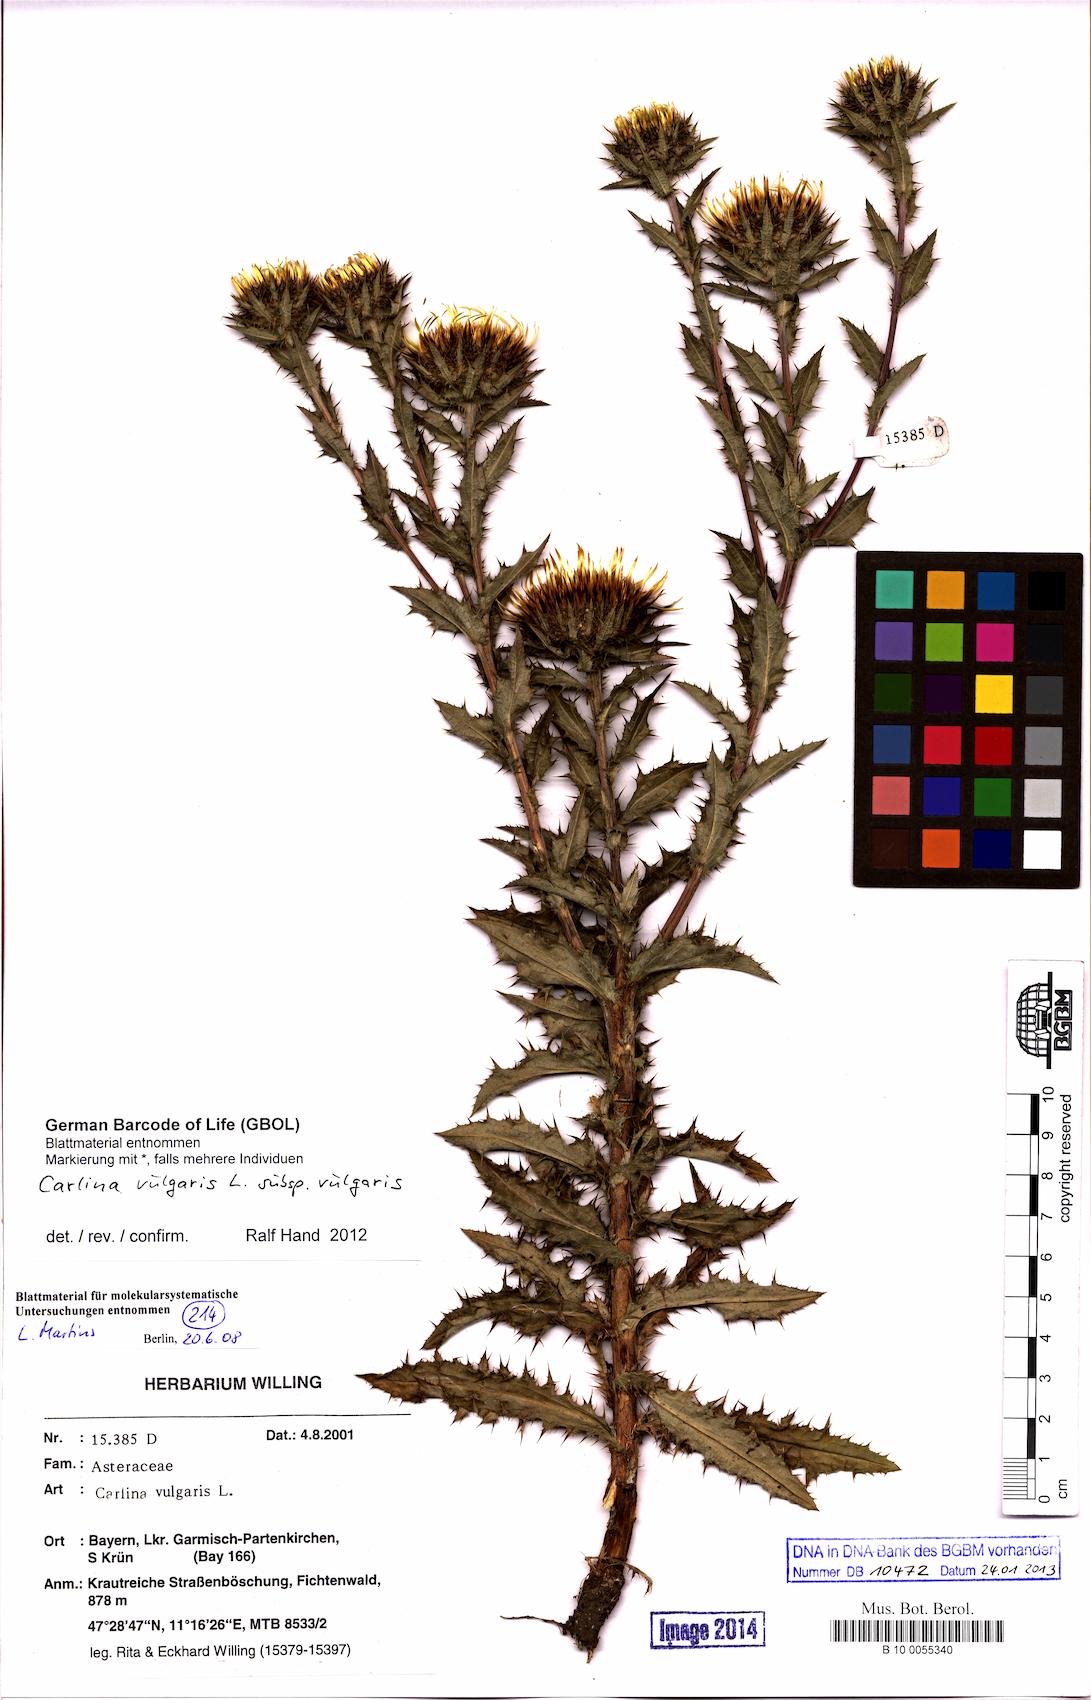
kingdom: Plantae
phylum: Tracheophyta
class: Magnoliopsida
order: Asterales
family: Asteraceae
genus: Carlina
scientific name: Carlina vulgaris
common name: Carline thistle
